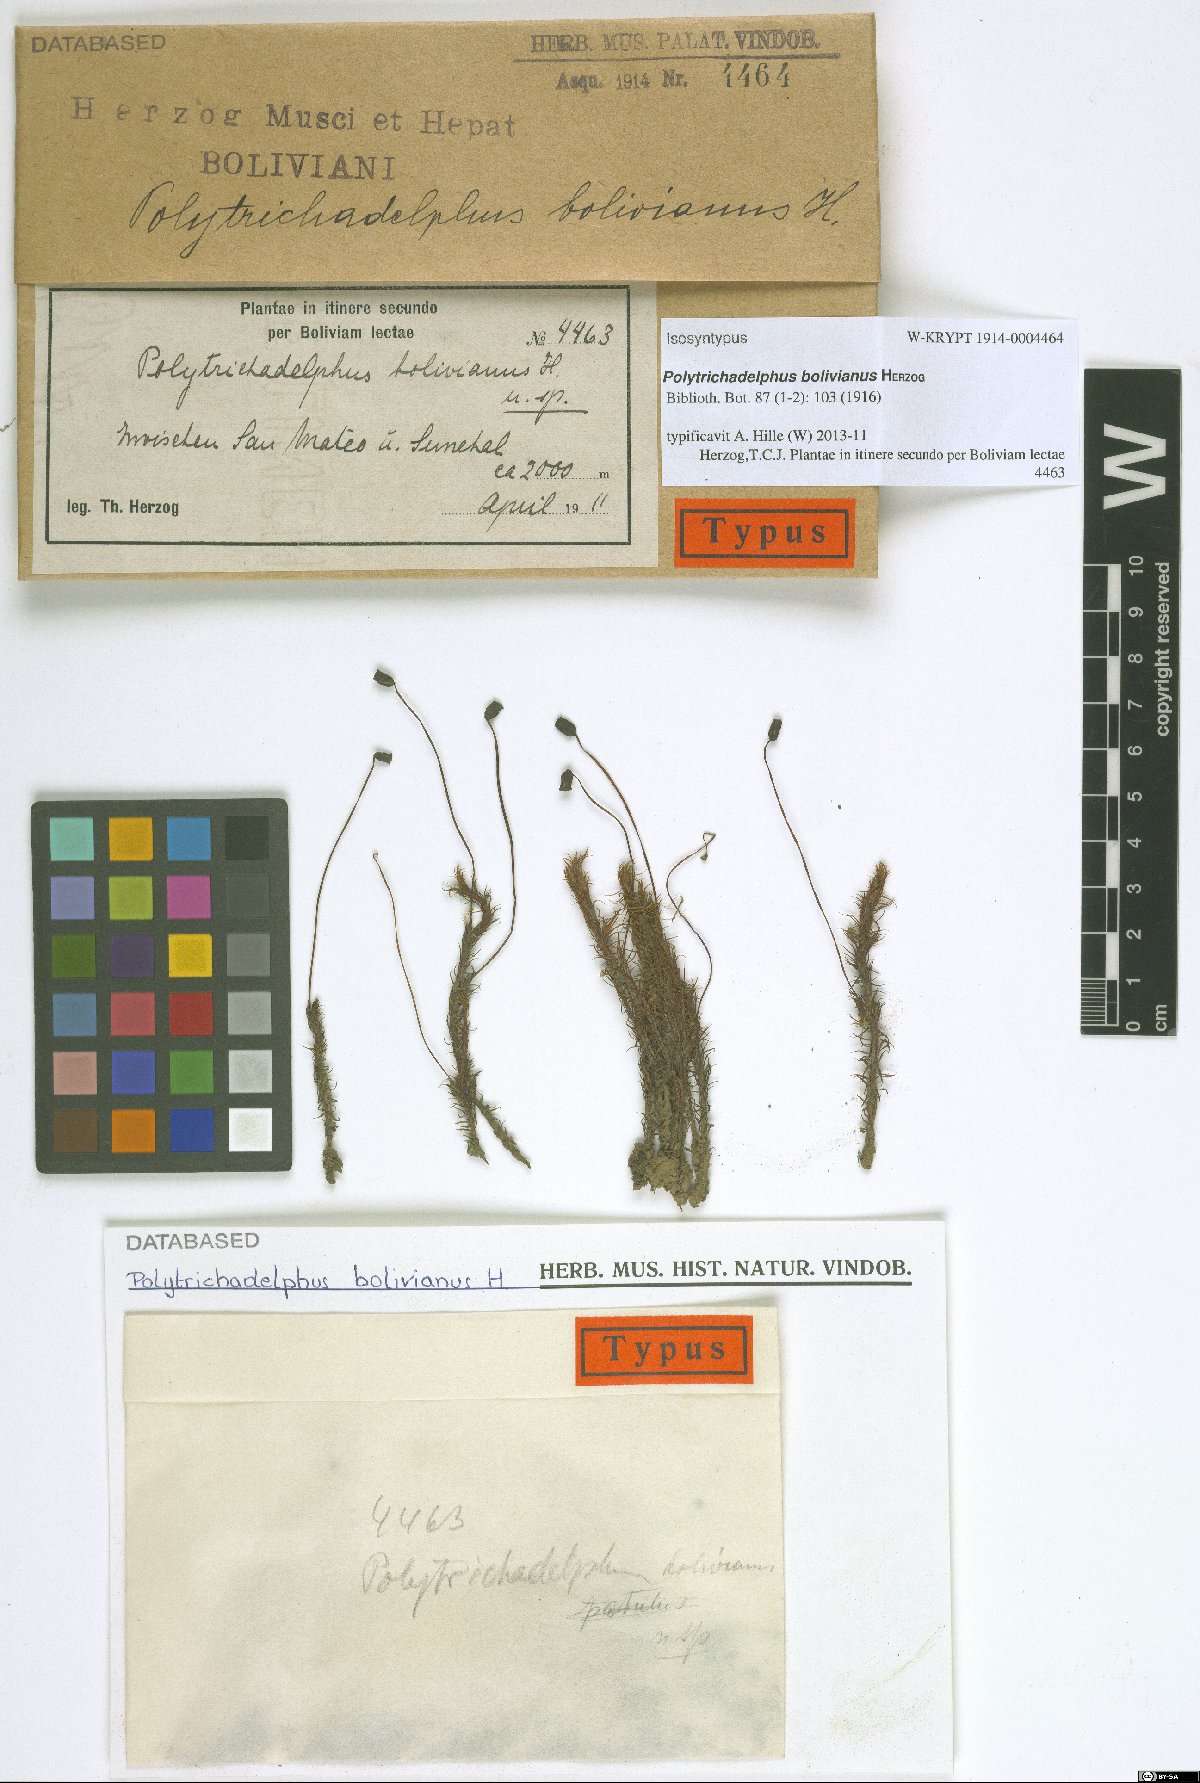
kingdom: Plantae
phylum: Bryophyta
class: Polytrichopsida
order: Polytrichales
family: Polytrichaceae
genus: Polytrichadelphus
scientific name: Polytrichadelphus longisetus
